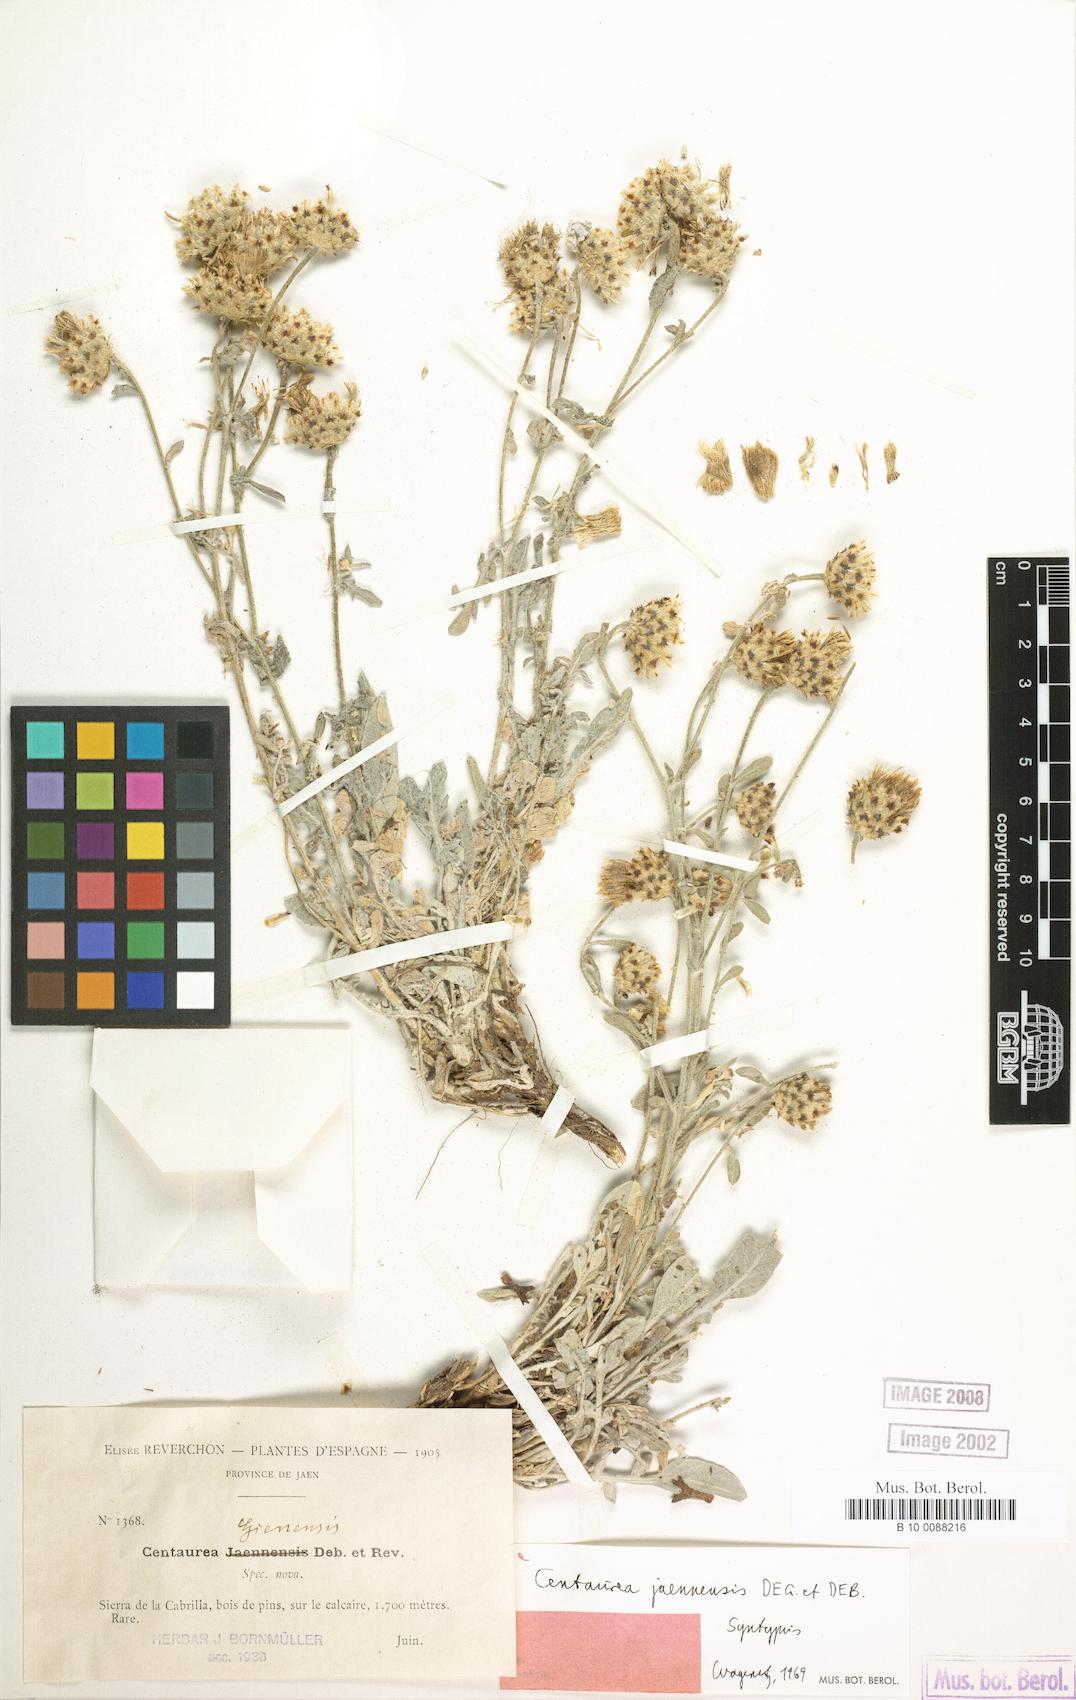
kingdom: Plantae
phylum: Tracheophyta
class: Magnoliopsida
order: Asterales
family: Asteraceae
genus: Centaurea
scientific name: Centaurea jaennensis
